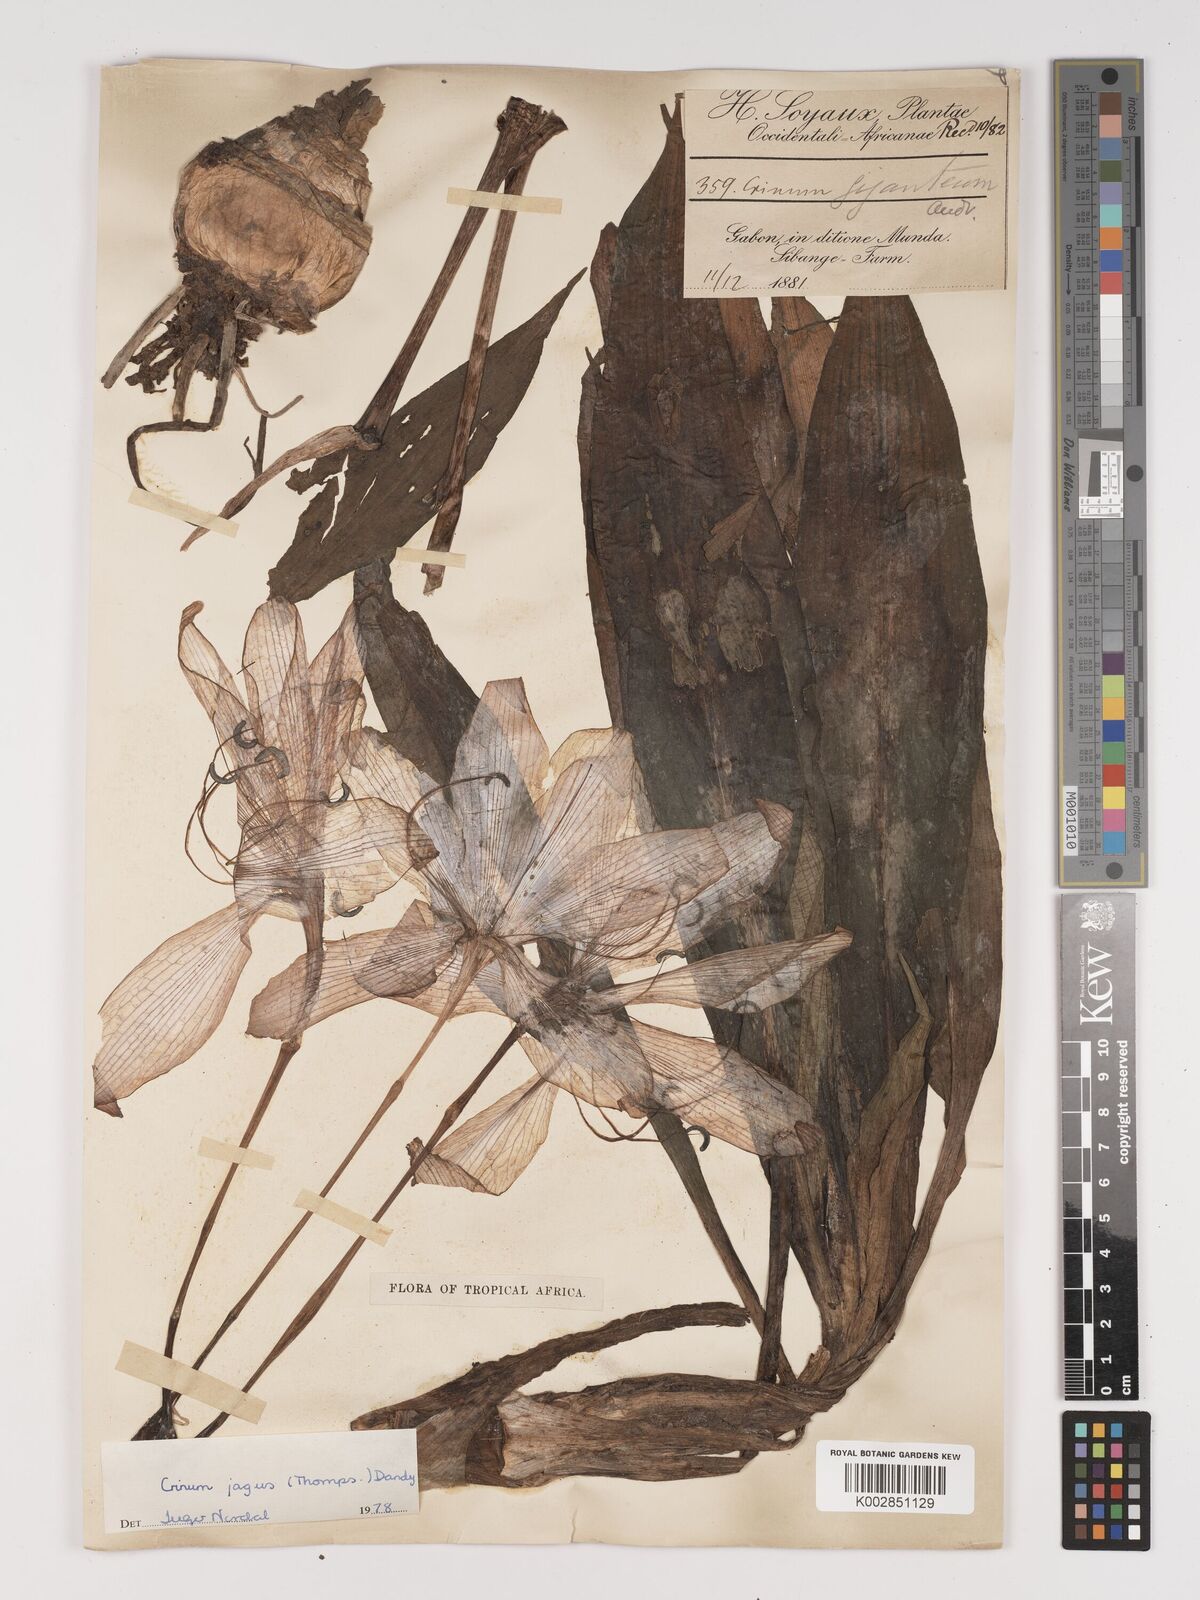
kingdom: Plantae
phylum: Tracheophyta
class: Liliopsida
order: Asparagales
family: Amaryllidaceae
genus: Crinum
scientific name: Crinum jagus
